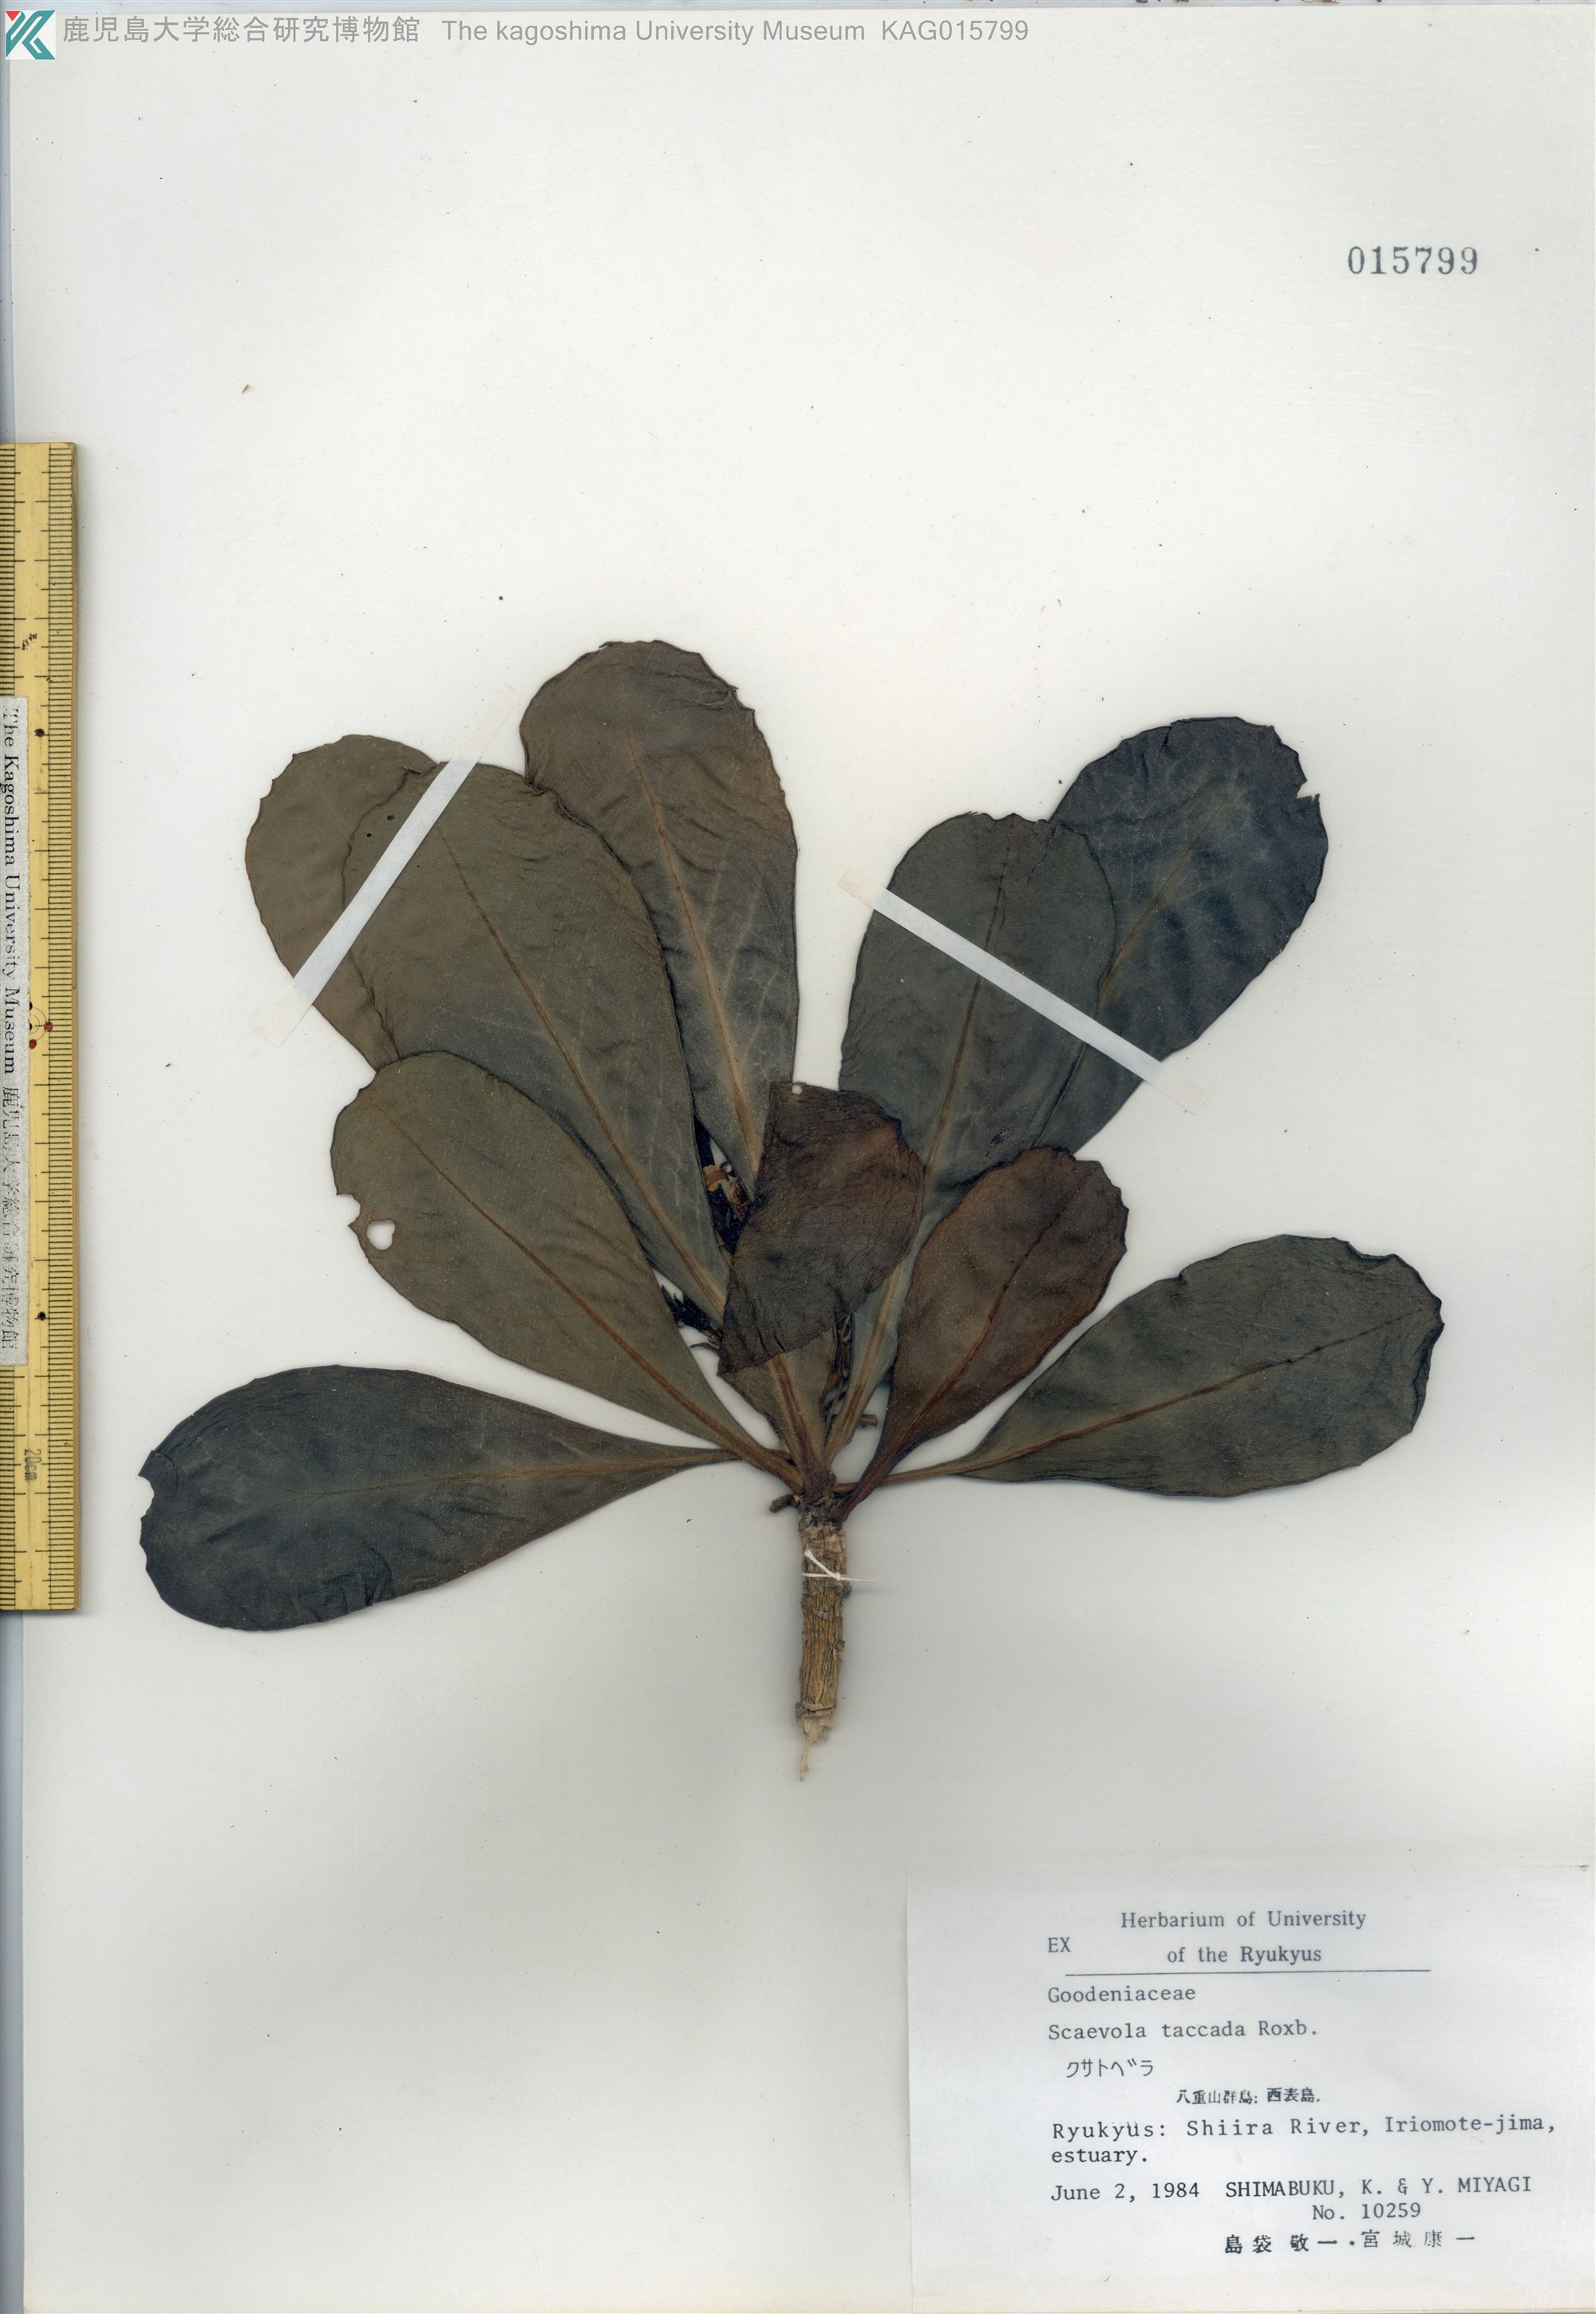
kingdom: Plantae
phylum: Tracheophyta
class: Magnoliopsida
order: Asterales
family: Goodeniaceae
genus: Scaevola
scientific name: Scaevola taccada
